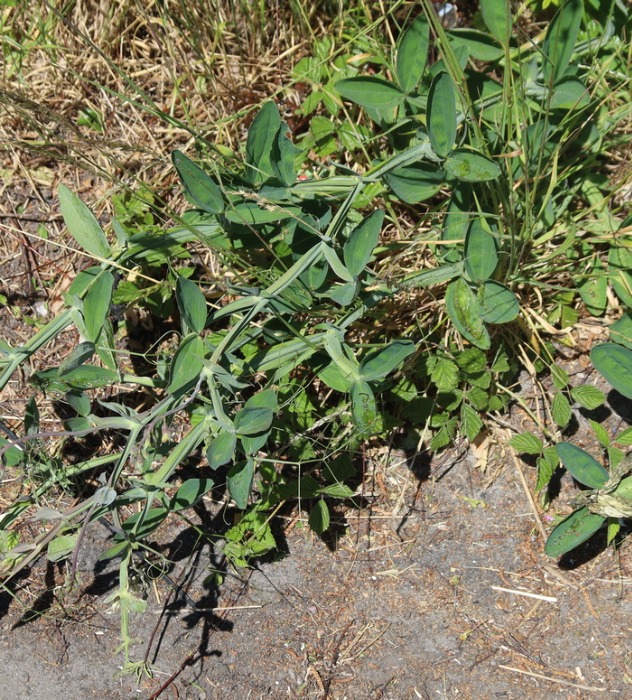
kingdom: Plantae
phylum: Tracheophyta
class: Magnoliopsida
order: Fabales
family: Fabaceae
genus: Lathyrus
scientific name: Lathyrus latifolius
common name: Flerårig ærteblomst
